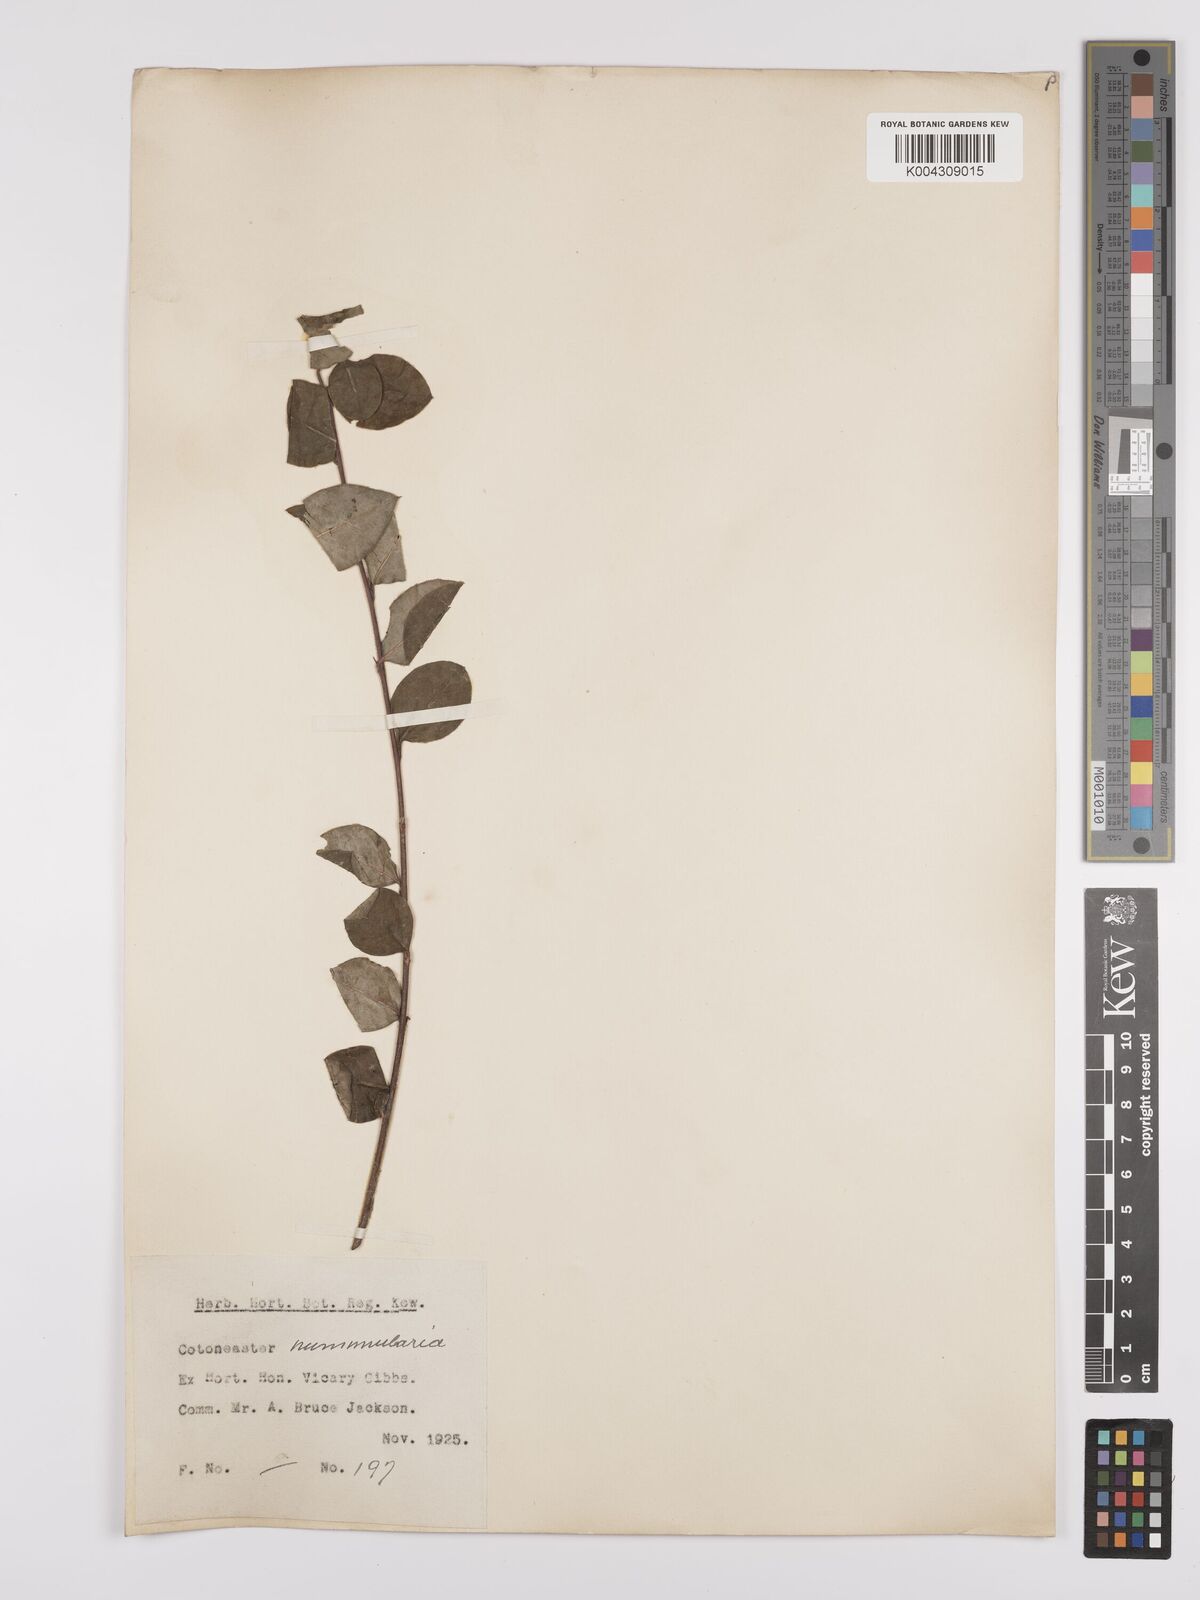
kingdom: Plantae
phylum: Tracheophyta
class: Magnoliopsida
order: Rosales
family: Rosaceae
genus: Cotoneaster
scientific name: Cotoneaster
